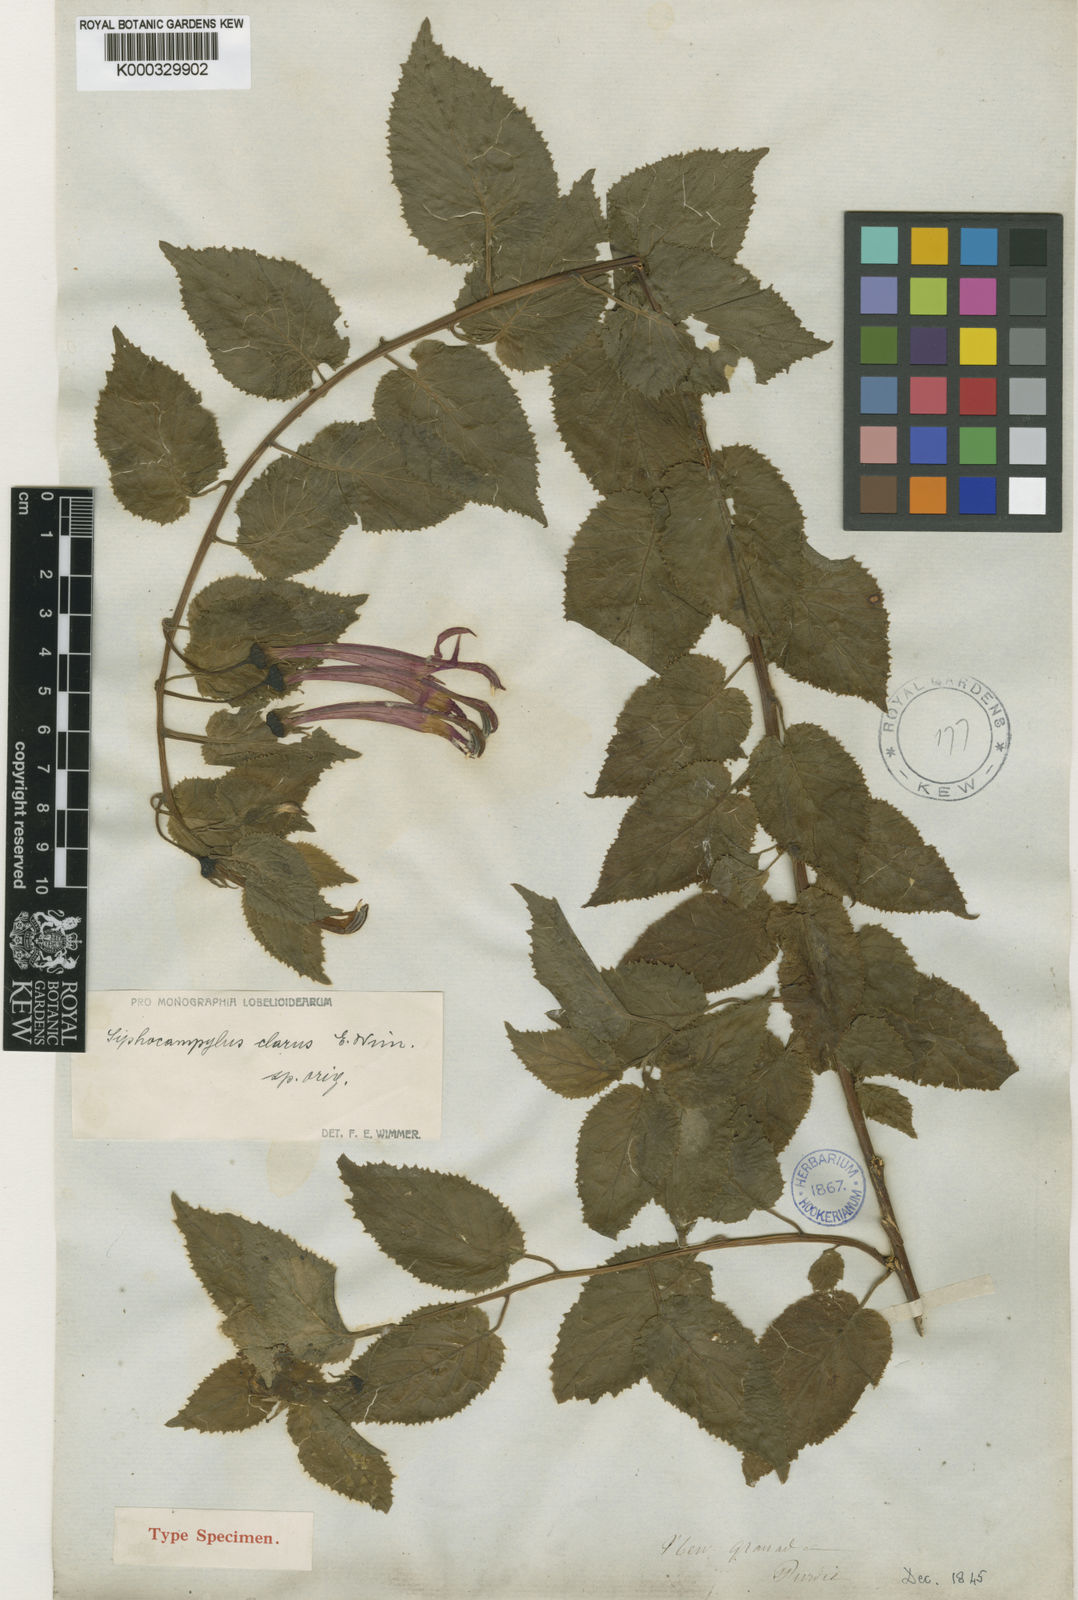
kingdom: Plantae
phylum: Tracheophyta
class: Magnoliopsida
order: Asterales
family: Campanulaceae
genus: Siphocampylus
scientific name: Siphocampylus dentatus
